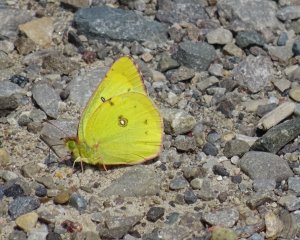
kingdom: Animalia
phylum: Arthropoda
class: Insecta
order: Lepidoptera
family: Pieridae
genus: Colias
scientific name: Colias philodice
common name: Clouded Sulphur
